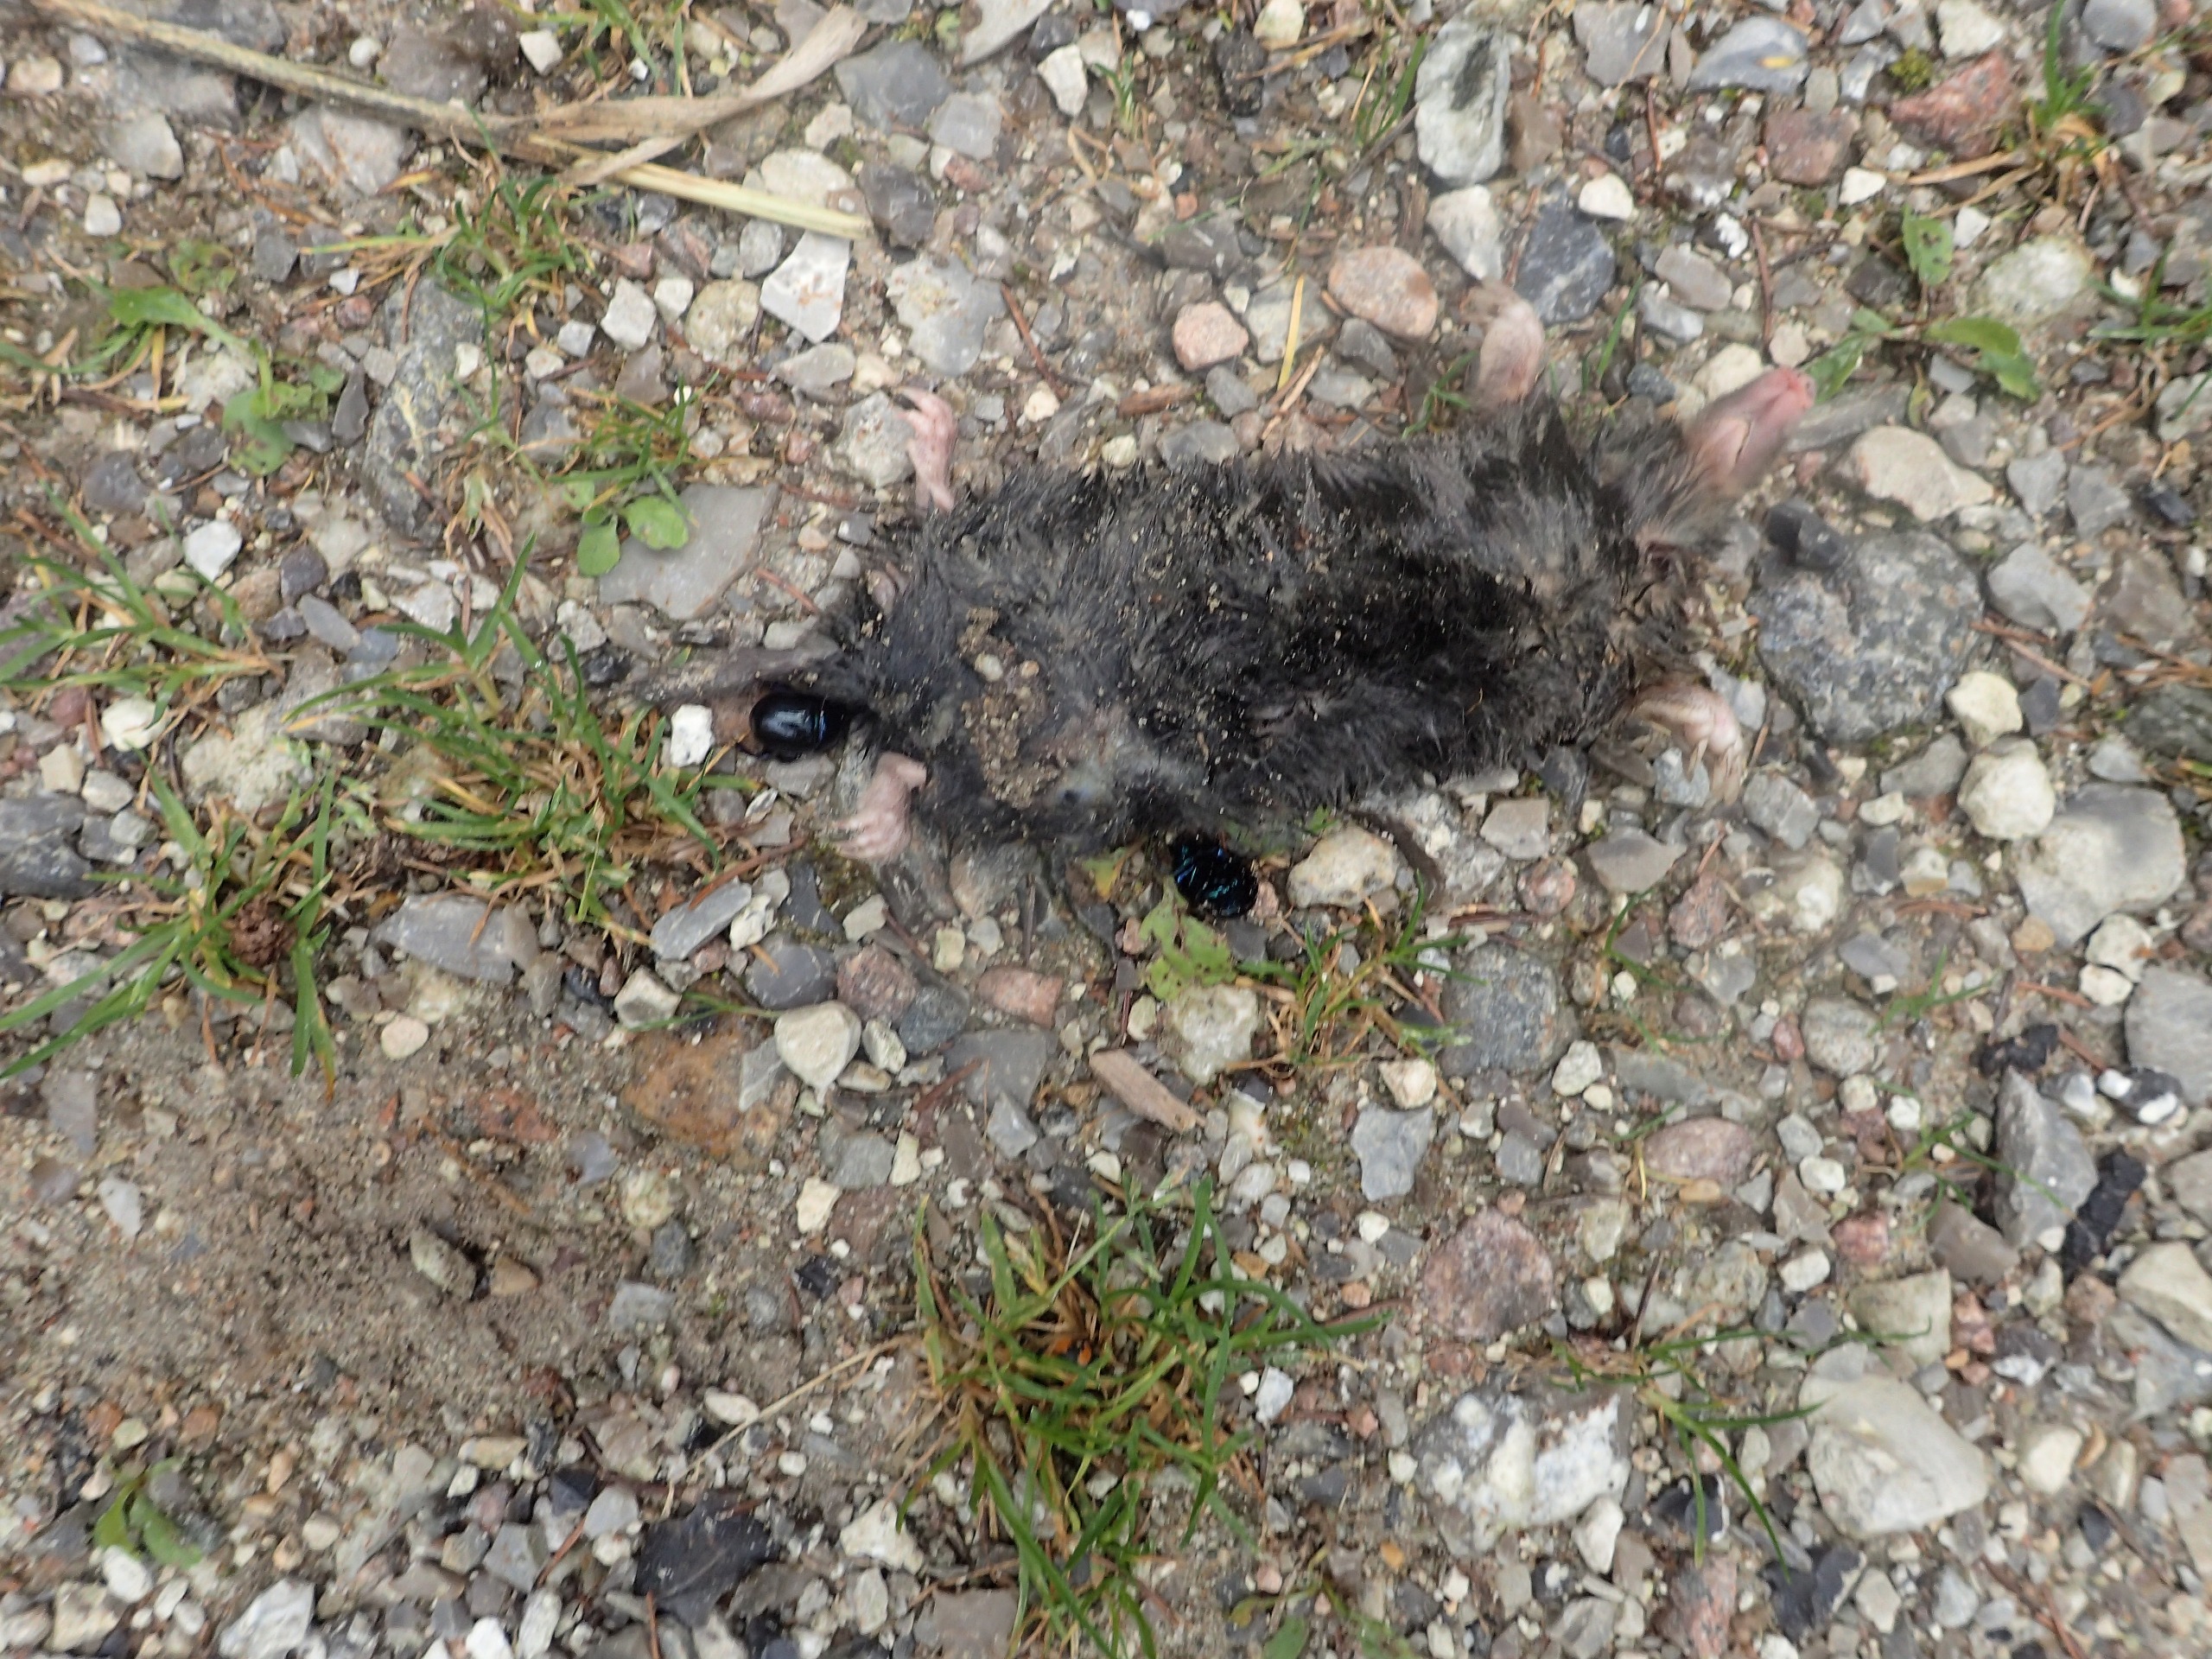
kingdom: Animalia
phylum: Chordata
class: Mammalia
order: Soricomorpha
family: Talpidae
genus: Talpa
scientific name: Talpa europaea
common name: Muldvarp
